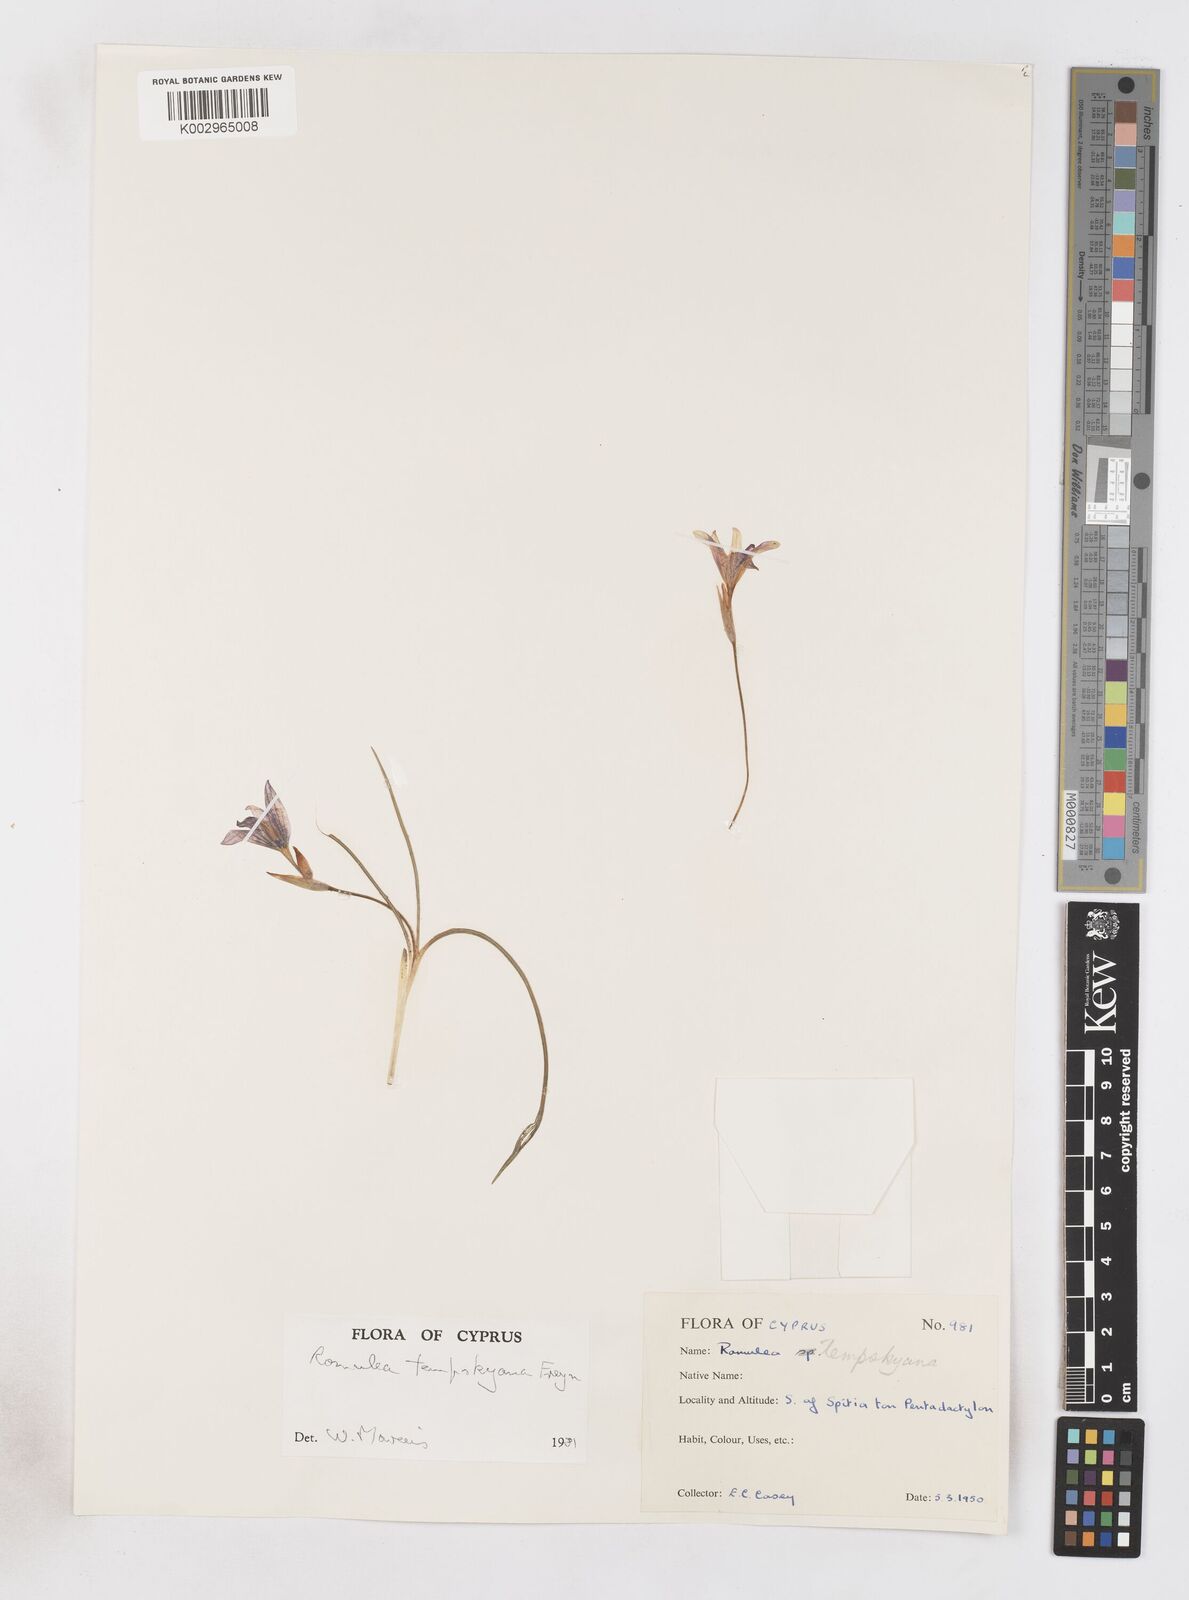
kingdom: Plantae
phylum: Tracheophyta
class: Liliopsida
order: Asparagales
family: Iridaceae
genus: Romulea
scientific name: Romulea tempskyana
